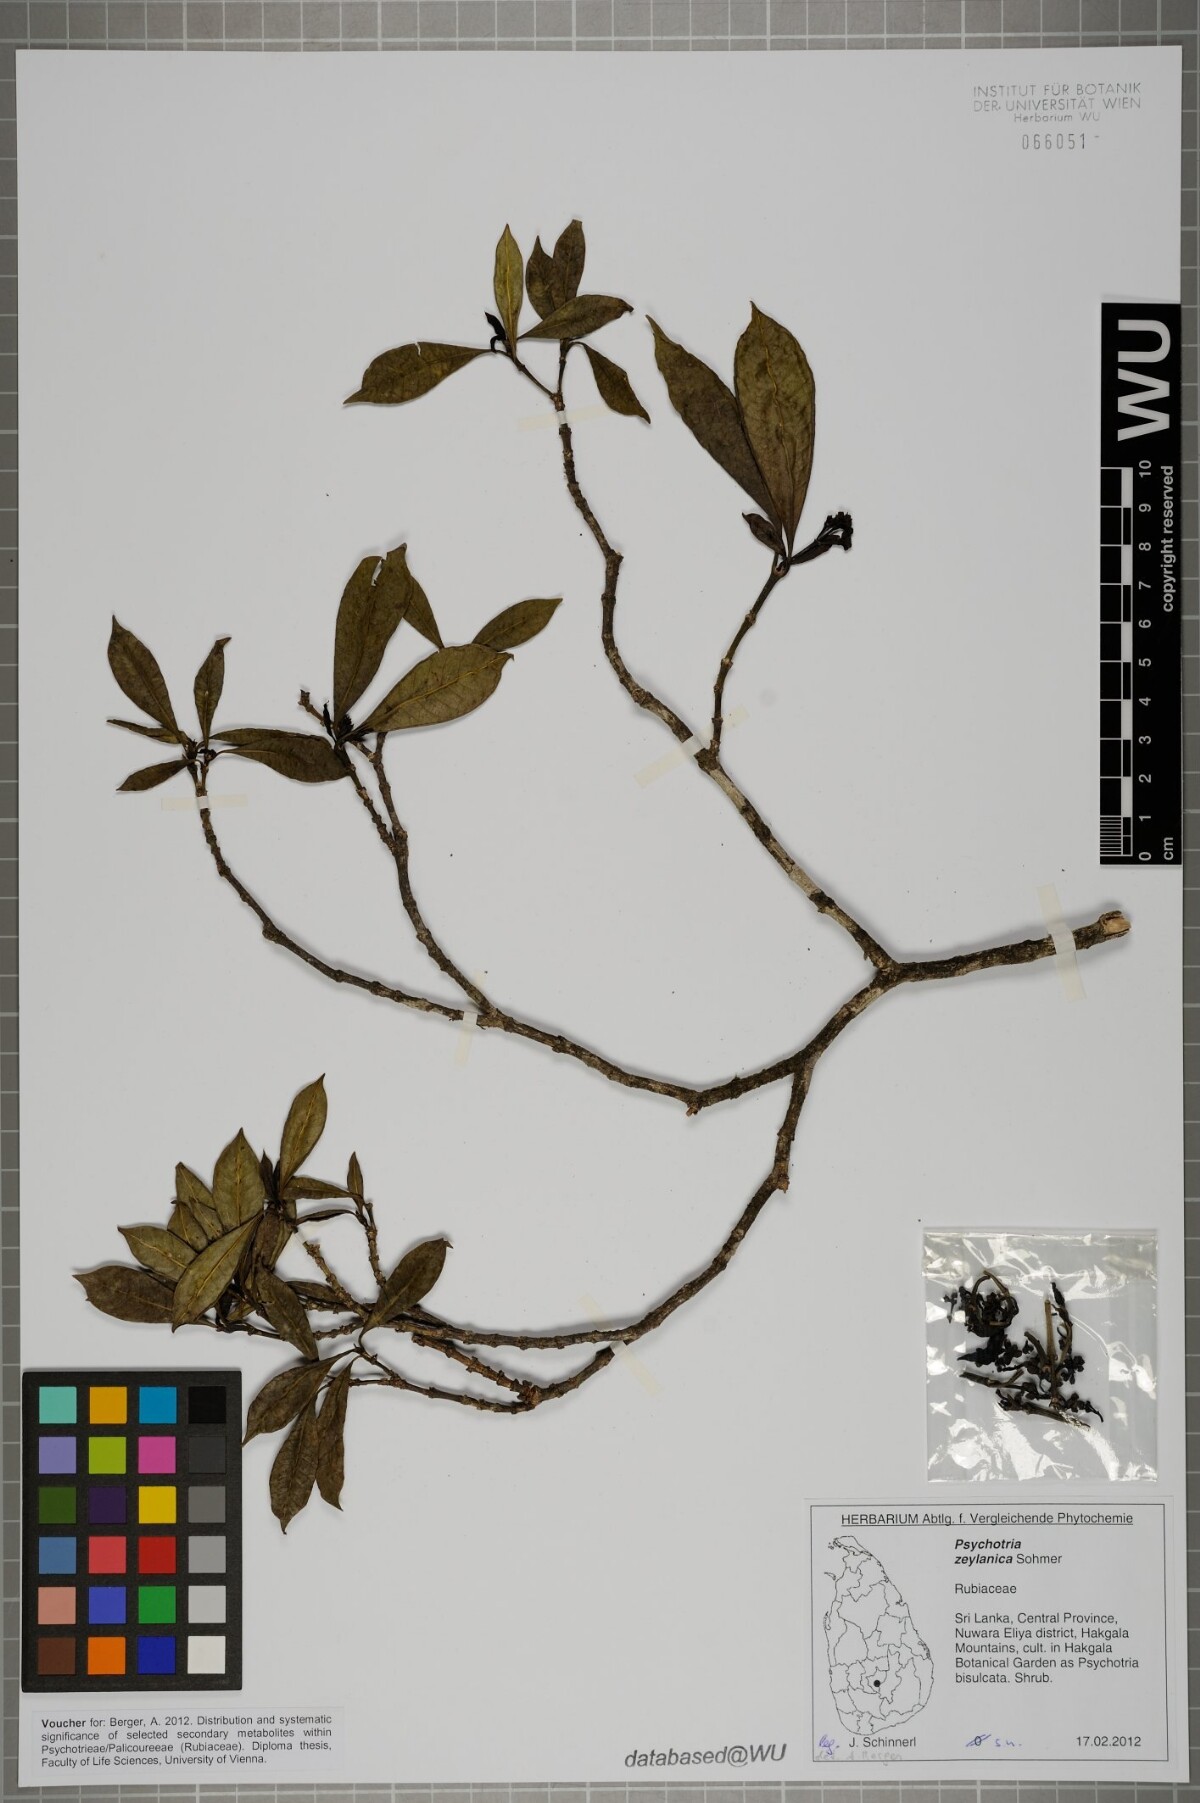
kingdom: Plantae
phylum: Tracheophyta
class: Magnoliopsida
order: Gentianales
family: Rubiaceae
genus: Psychotria
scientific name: Psychotria zeylanica
